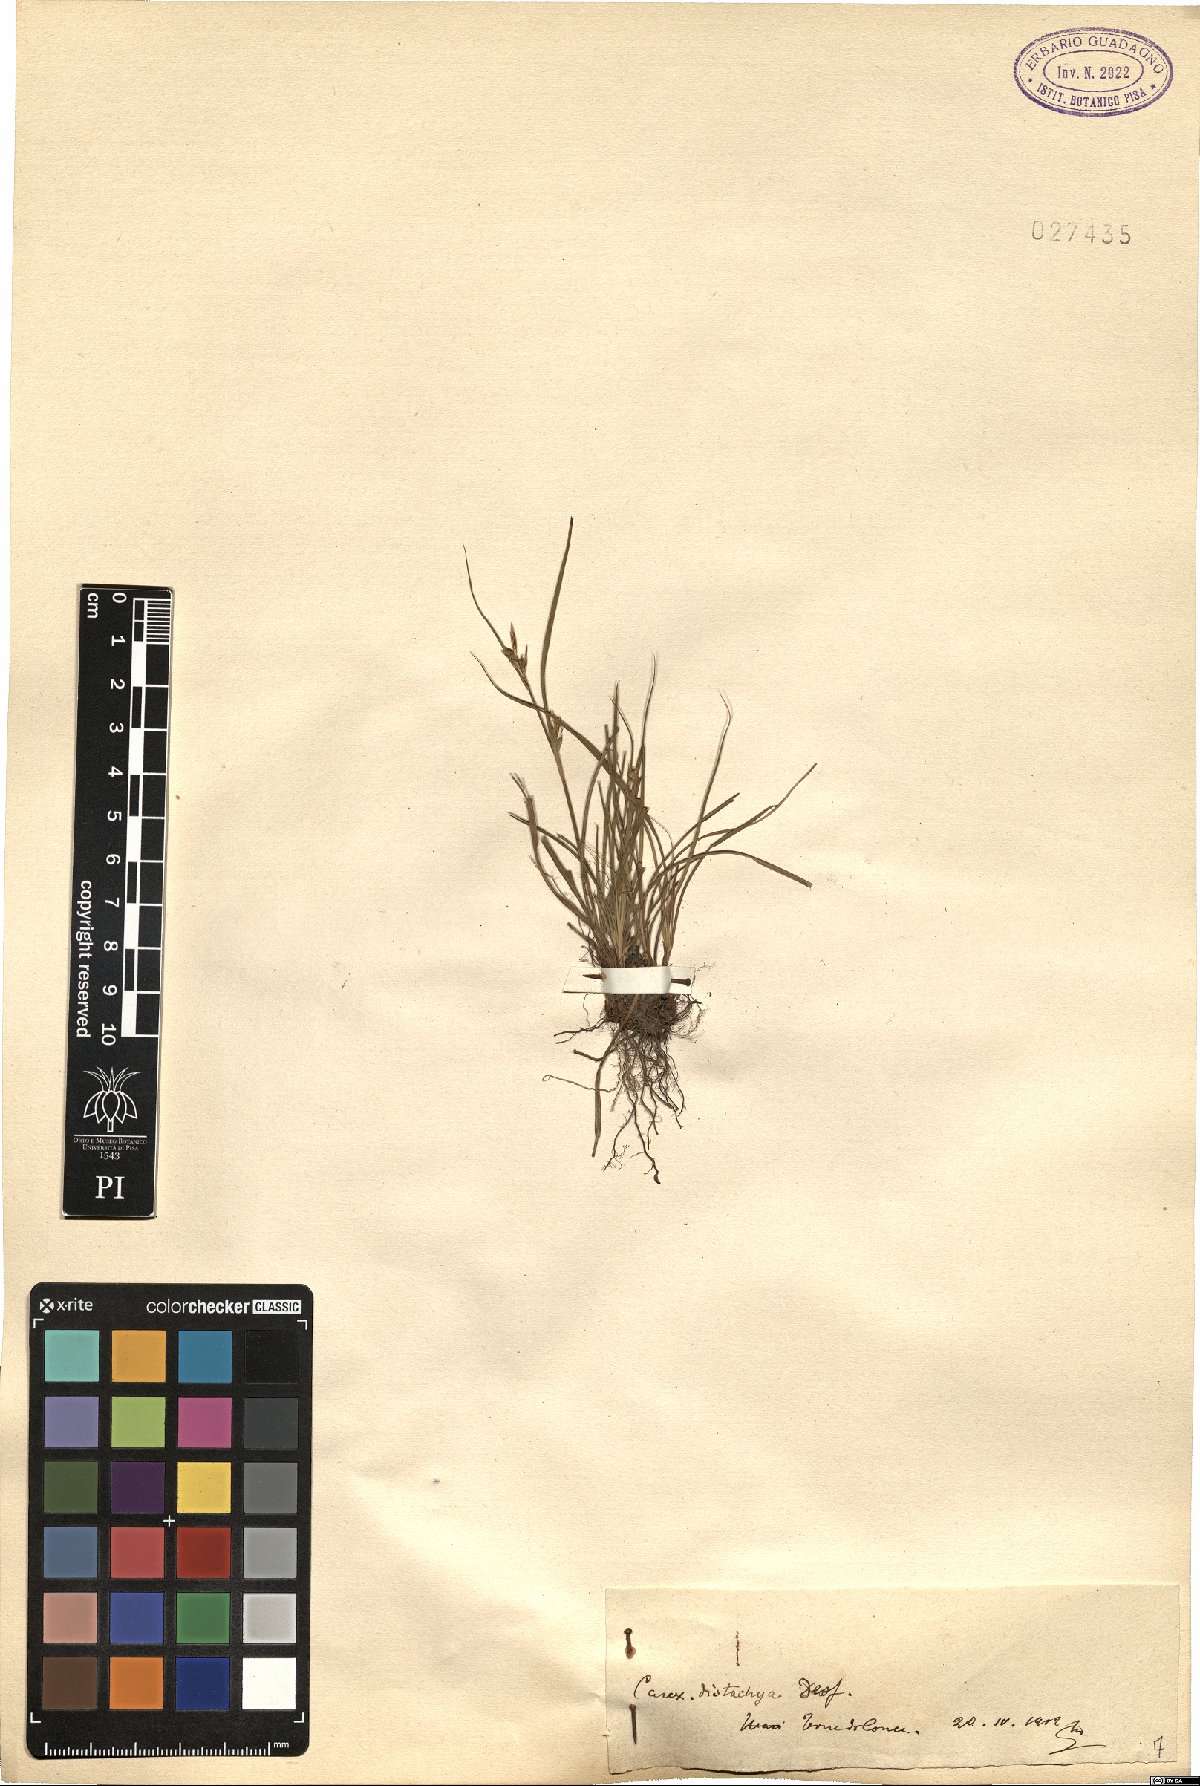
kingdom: Plantae
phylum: Tracheophyta
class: Liliopsida
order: Poales
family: Cyperaceae
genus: Carex
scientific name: Carex distachya
